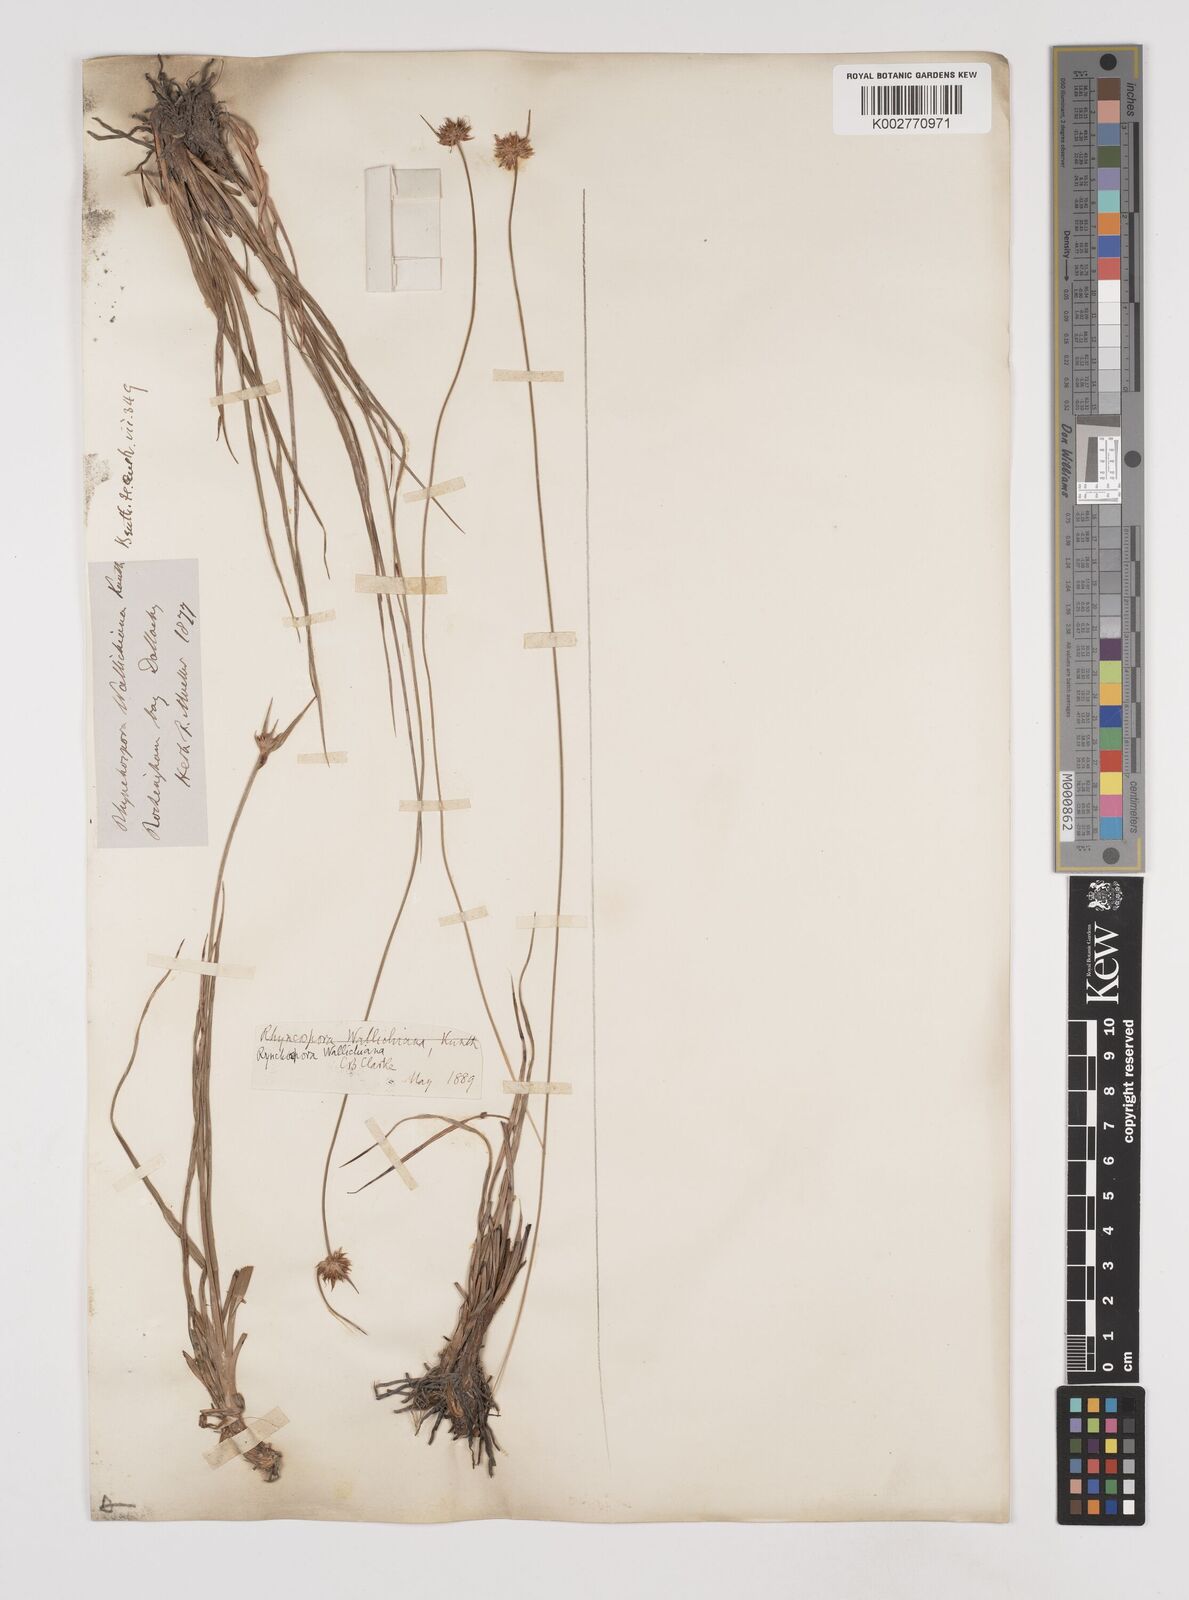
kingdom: Plantae
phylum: Tracheophyta
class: Liliopsida
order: Poales
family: Cyperaceae
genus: Rhynchospora
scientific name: Rhynchospora rubra
